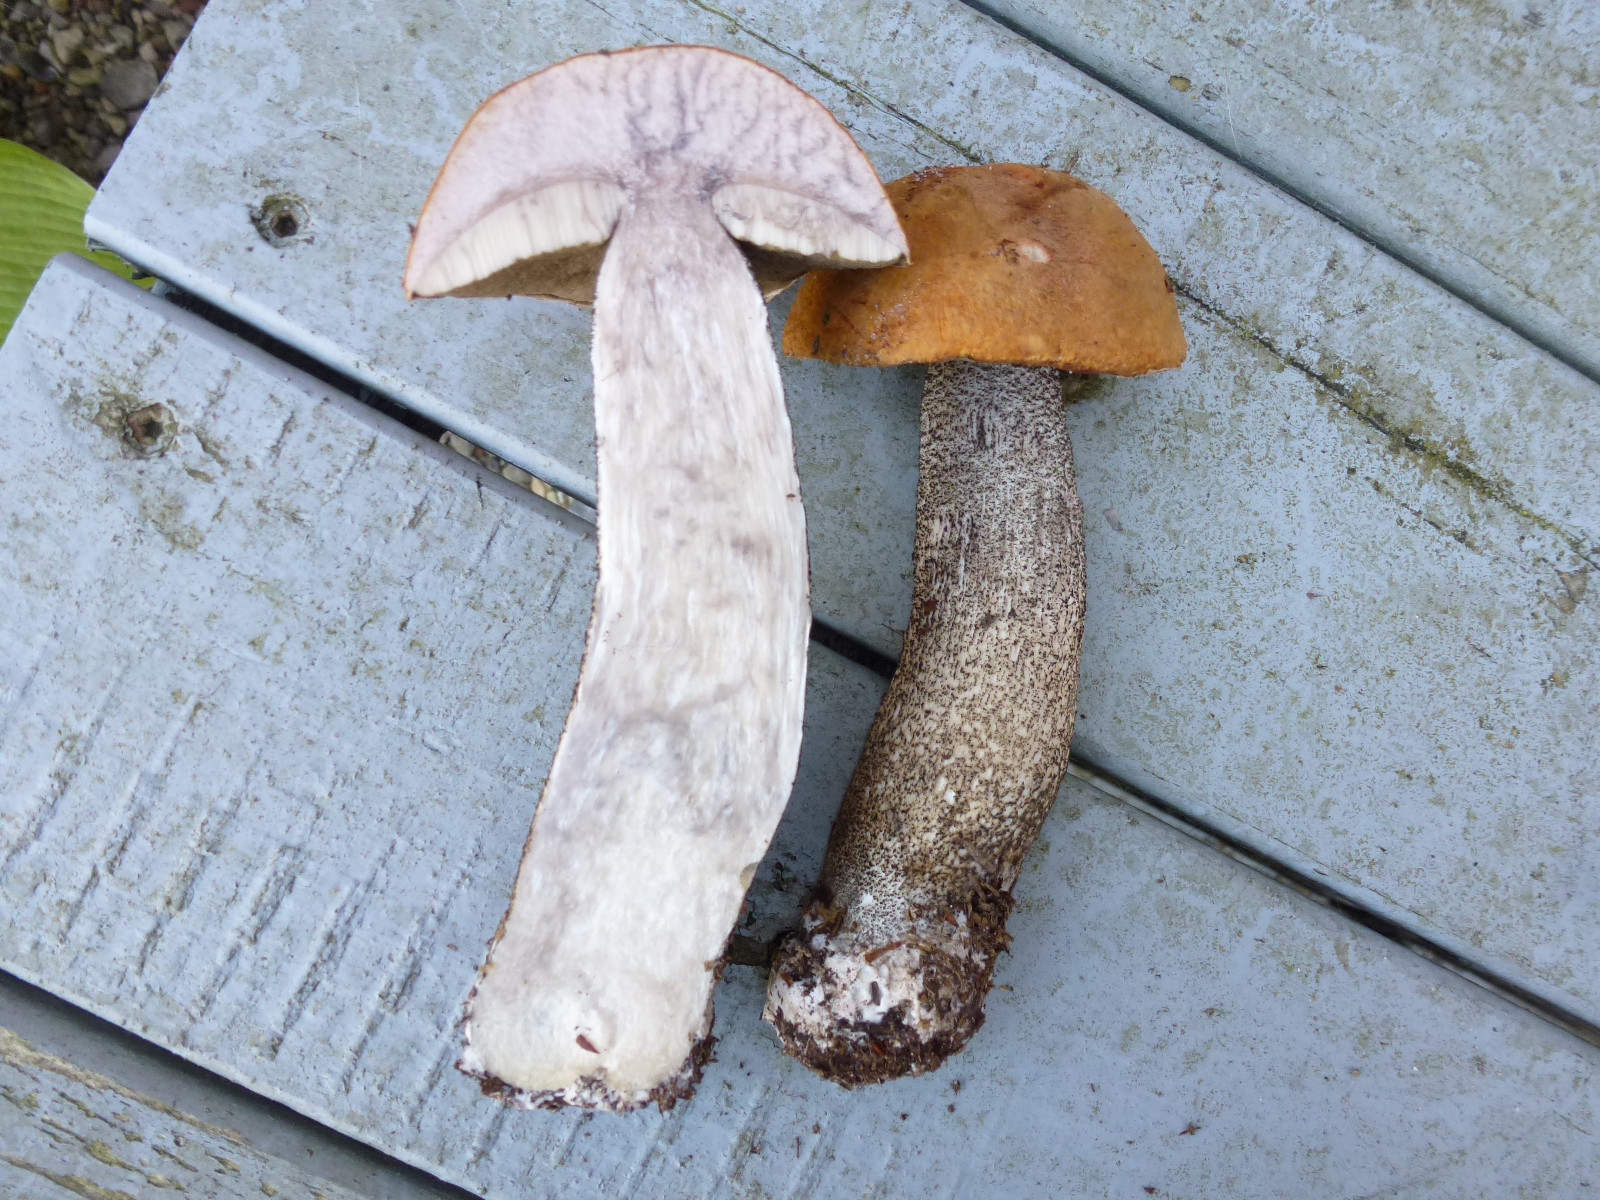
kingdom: Fungi
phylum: Basidiomycota
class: Agaricomycetes
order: Boletales
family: Boletaceae
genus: Leccinum
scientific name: Leccinum versipelle
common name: orange skælrørhat
